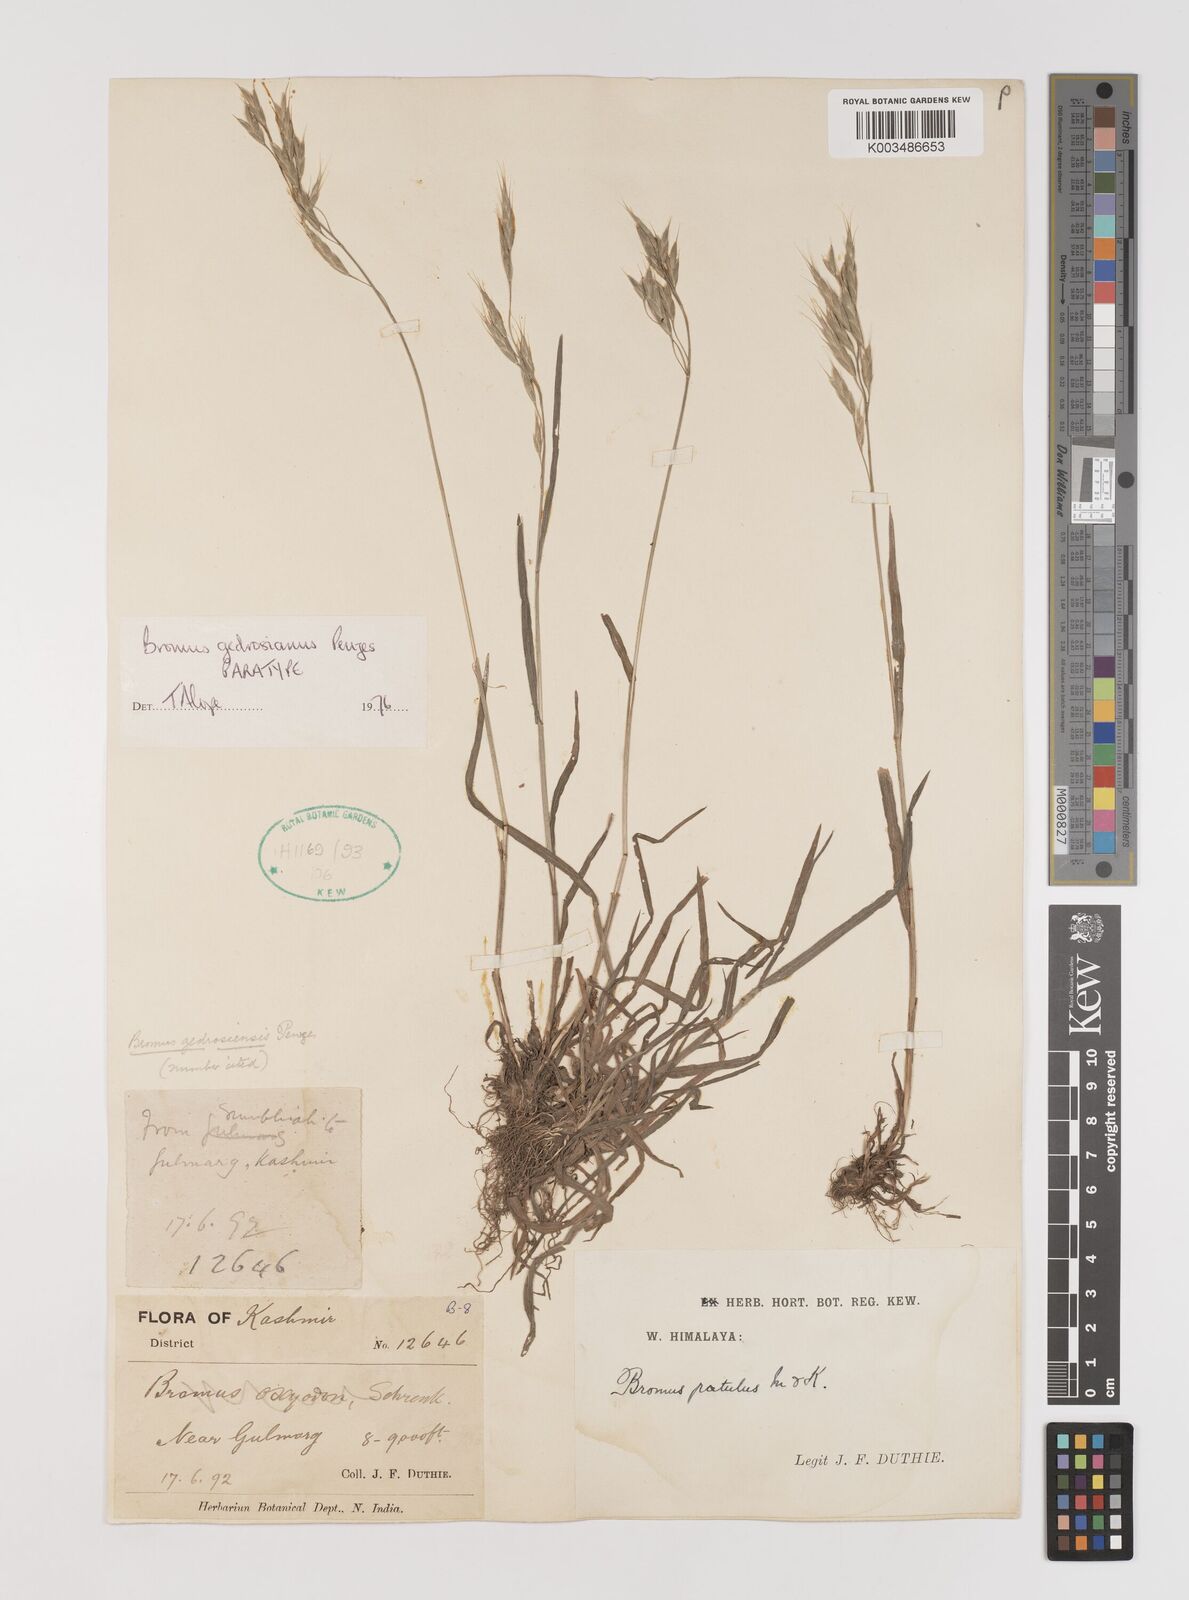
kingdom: Plantae
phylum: Tracheophyta
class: Liliopsida
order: Poales
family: Poaceae
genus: Bromus
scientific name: Bromus pectinatus
